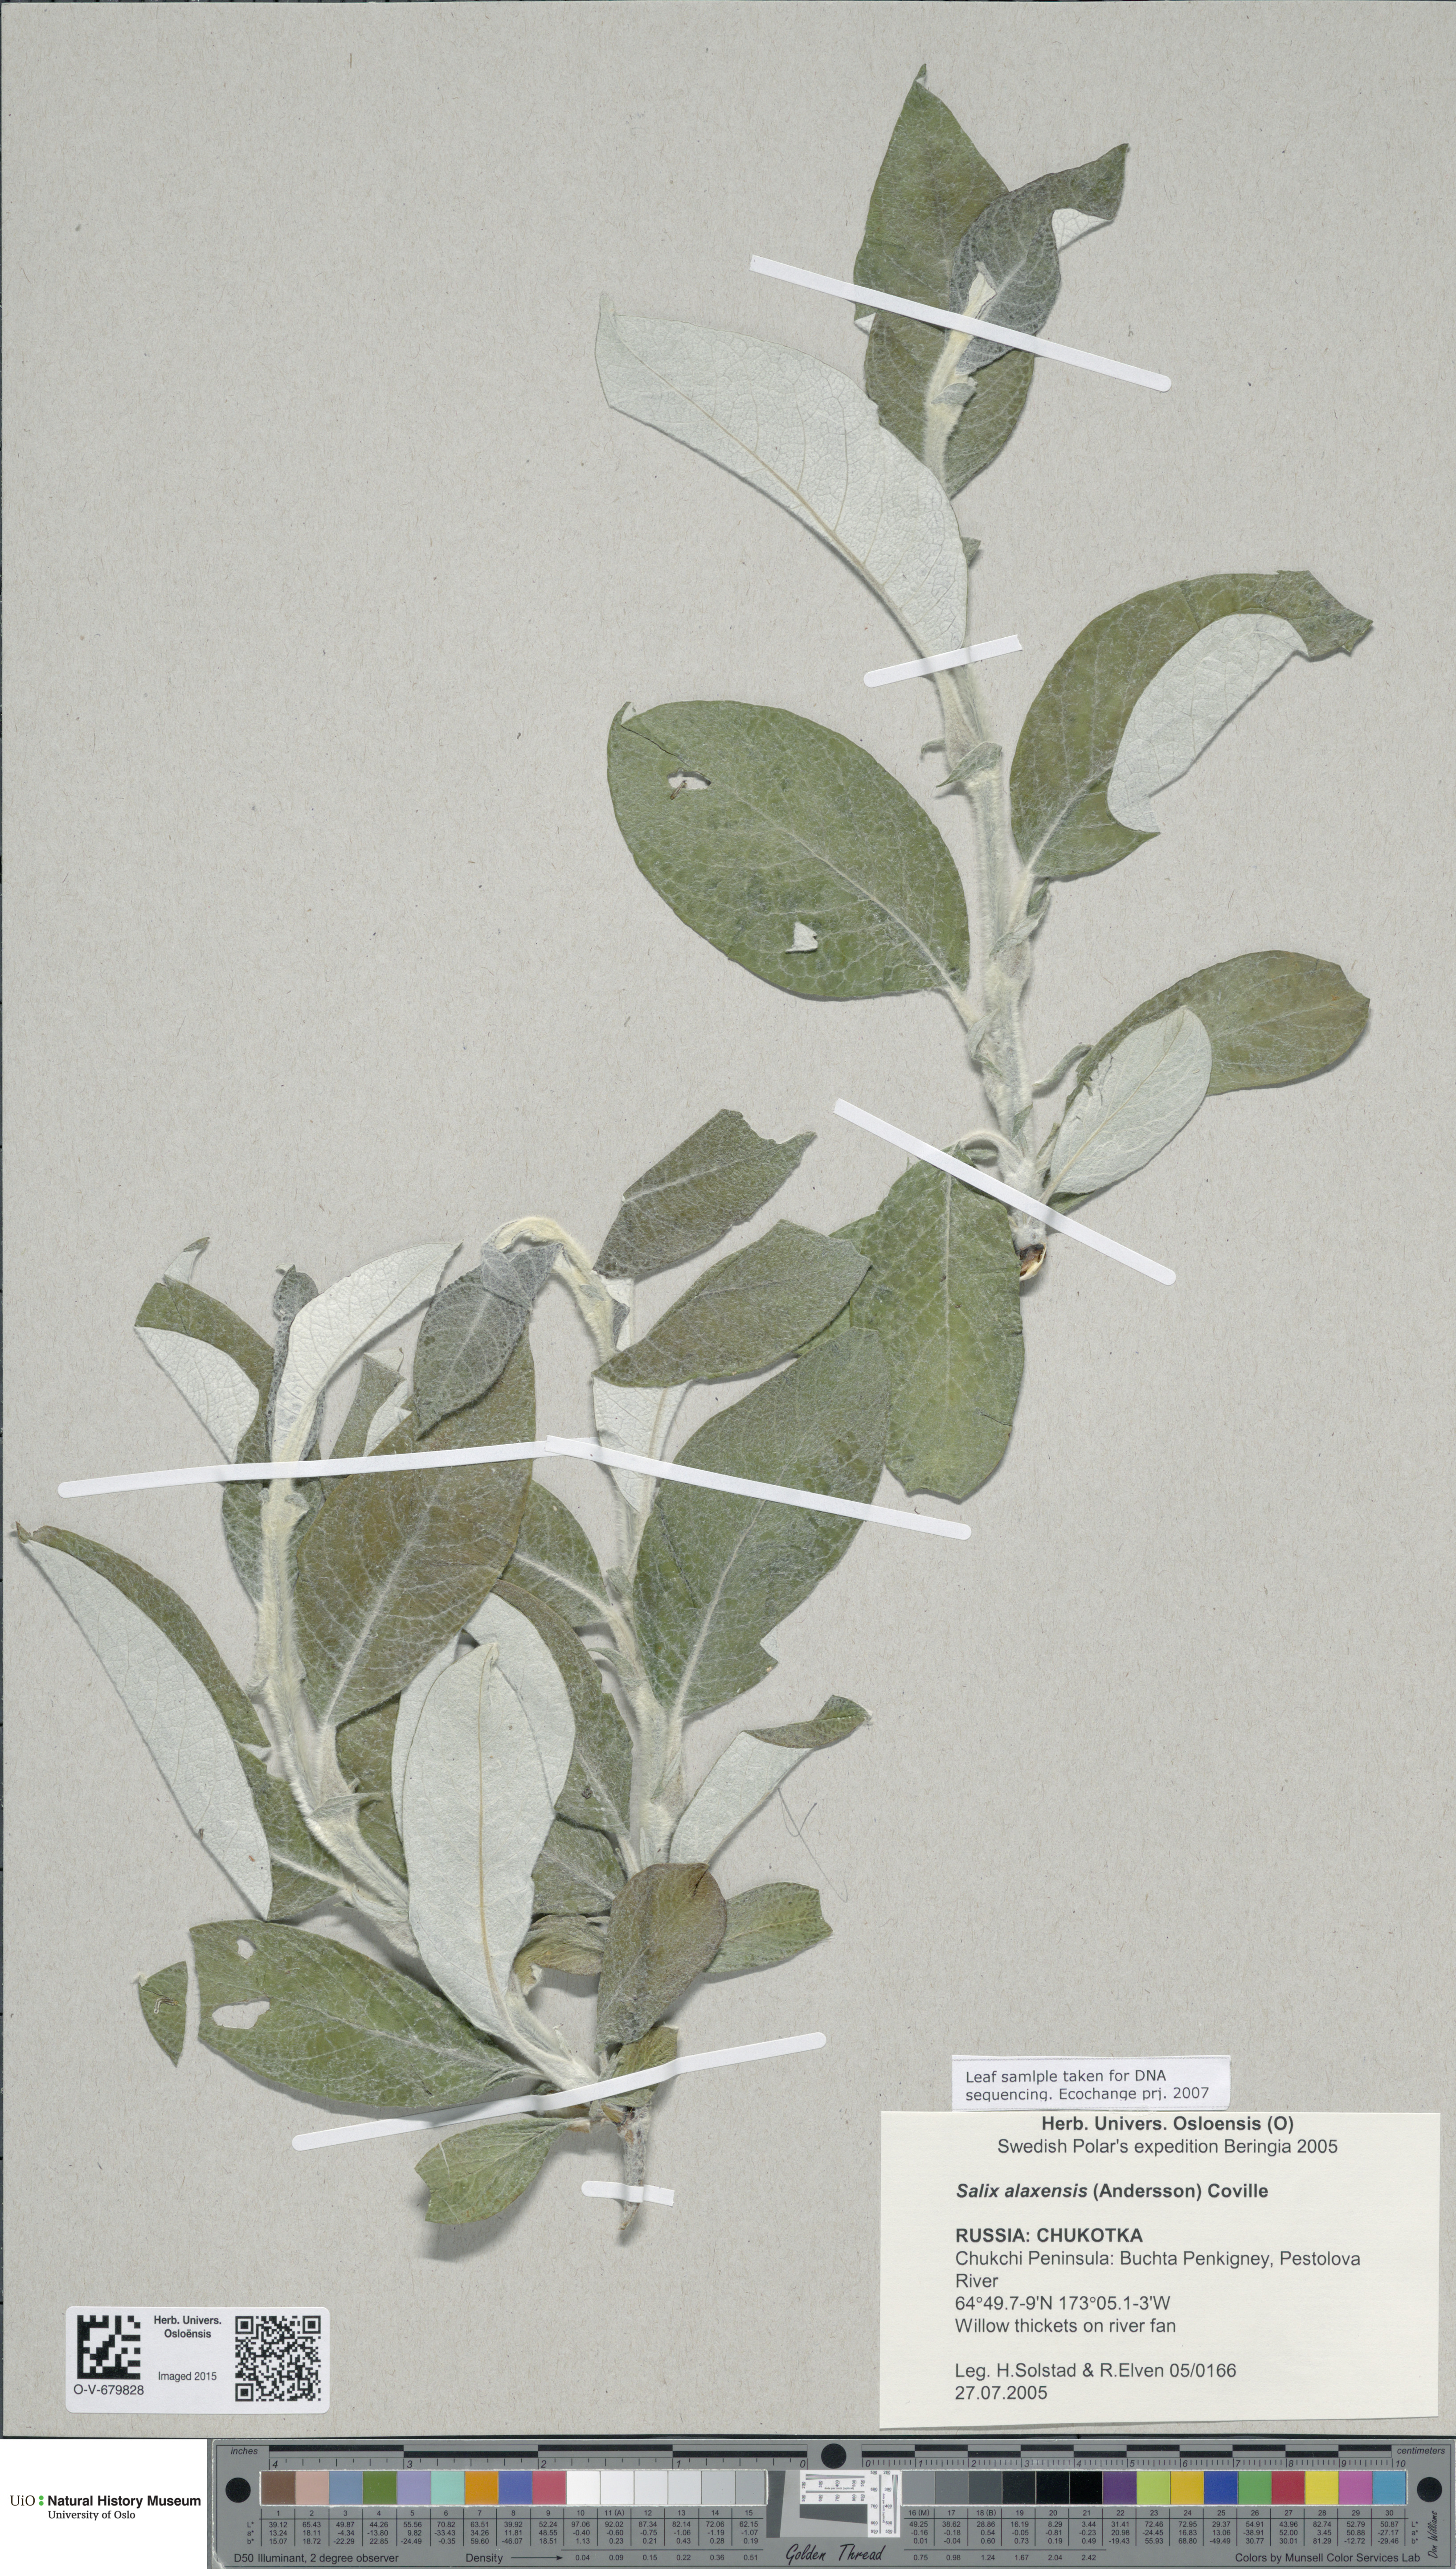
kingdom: Plantae
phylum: Tracheophyta
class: Magnoliopsida
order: Malpighiales
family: Salicaceae
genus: Salix
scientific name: Salix alaxensis
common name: Feltleaf willow
